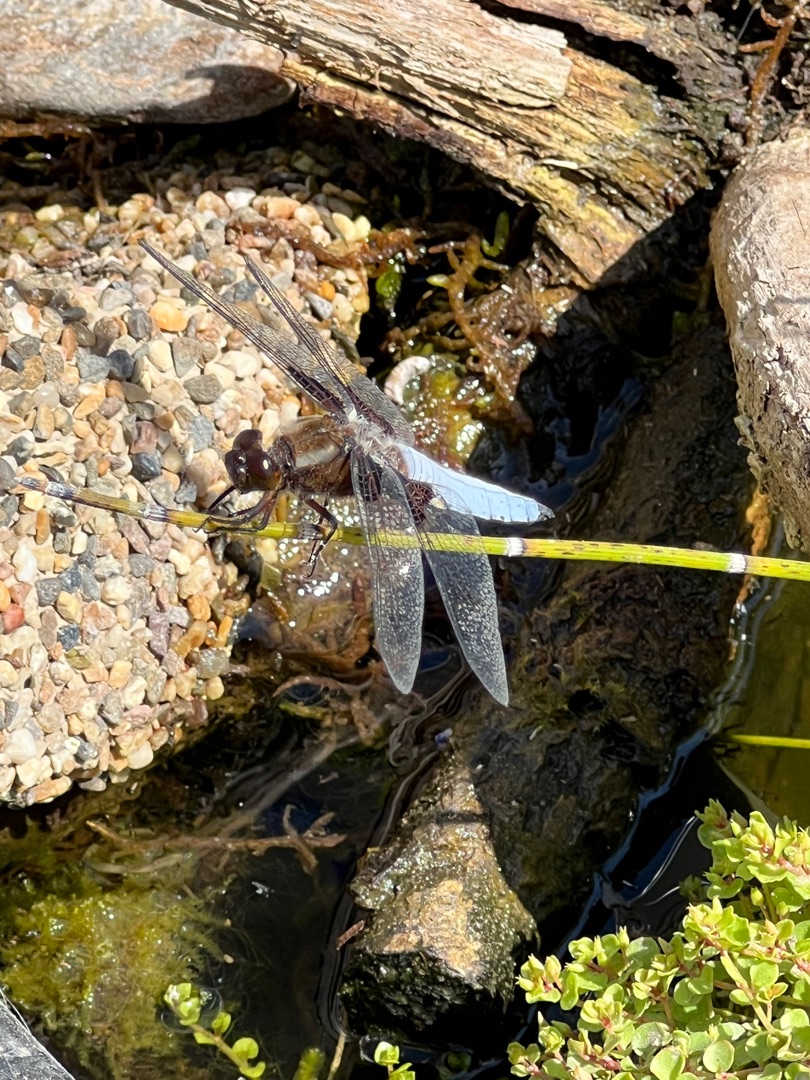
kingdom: Animalia
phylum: Arthropoda
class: Insecta
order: Odonata
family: Libellulidae
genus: Libellula
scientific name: Libellula depressa
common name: Blå libel
